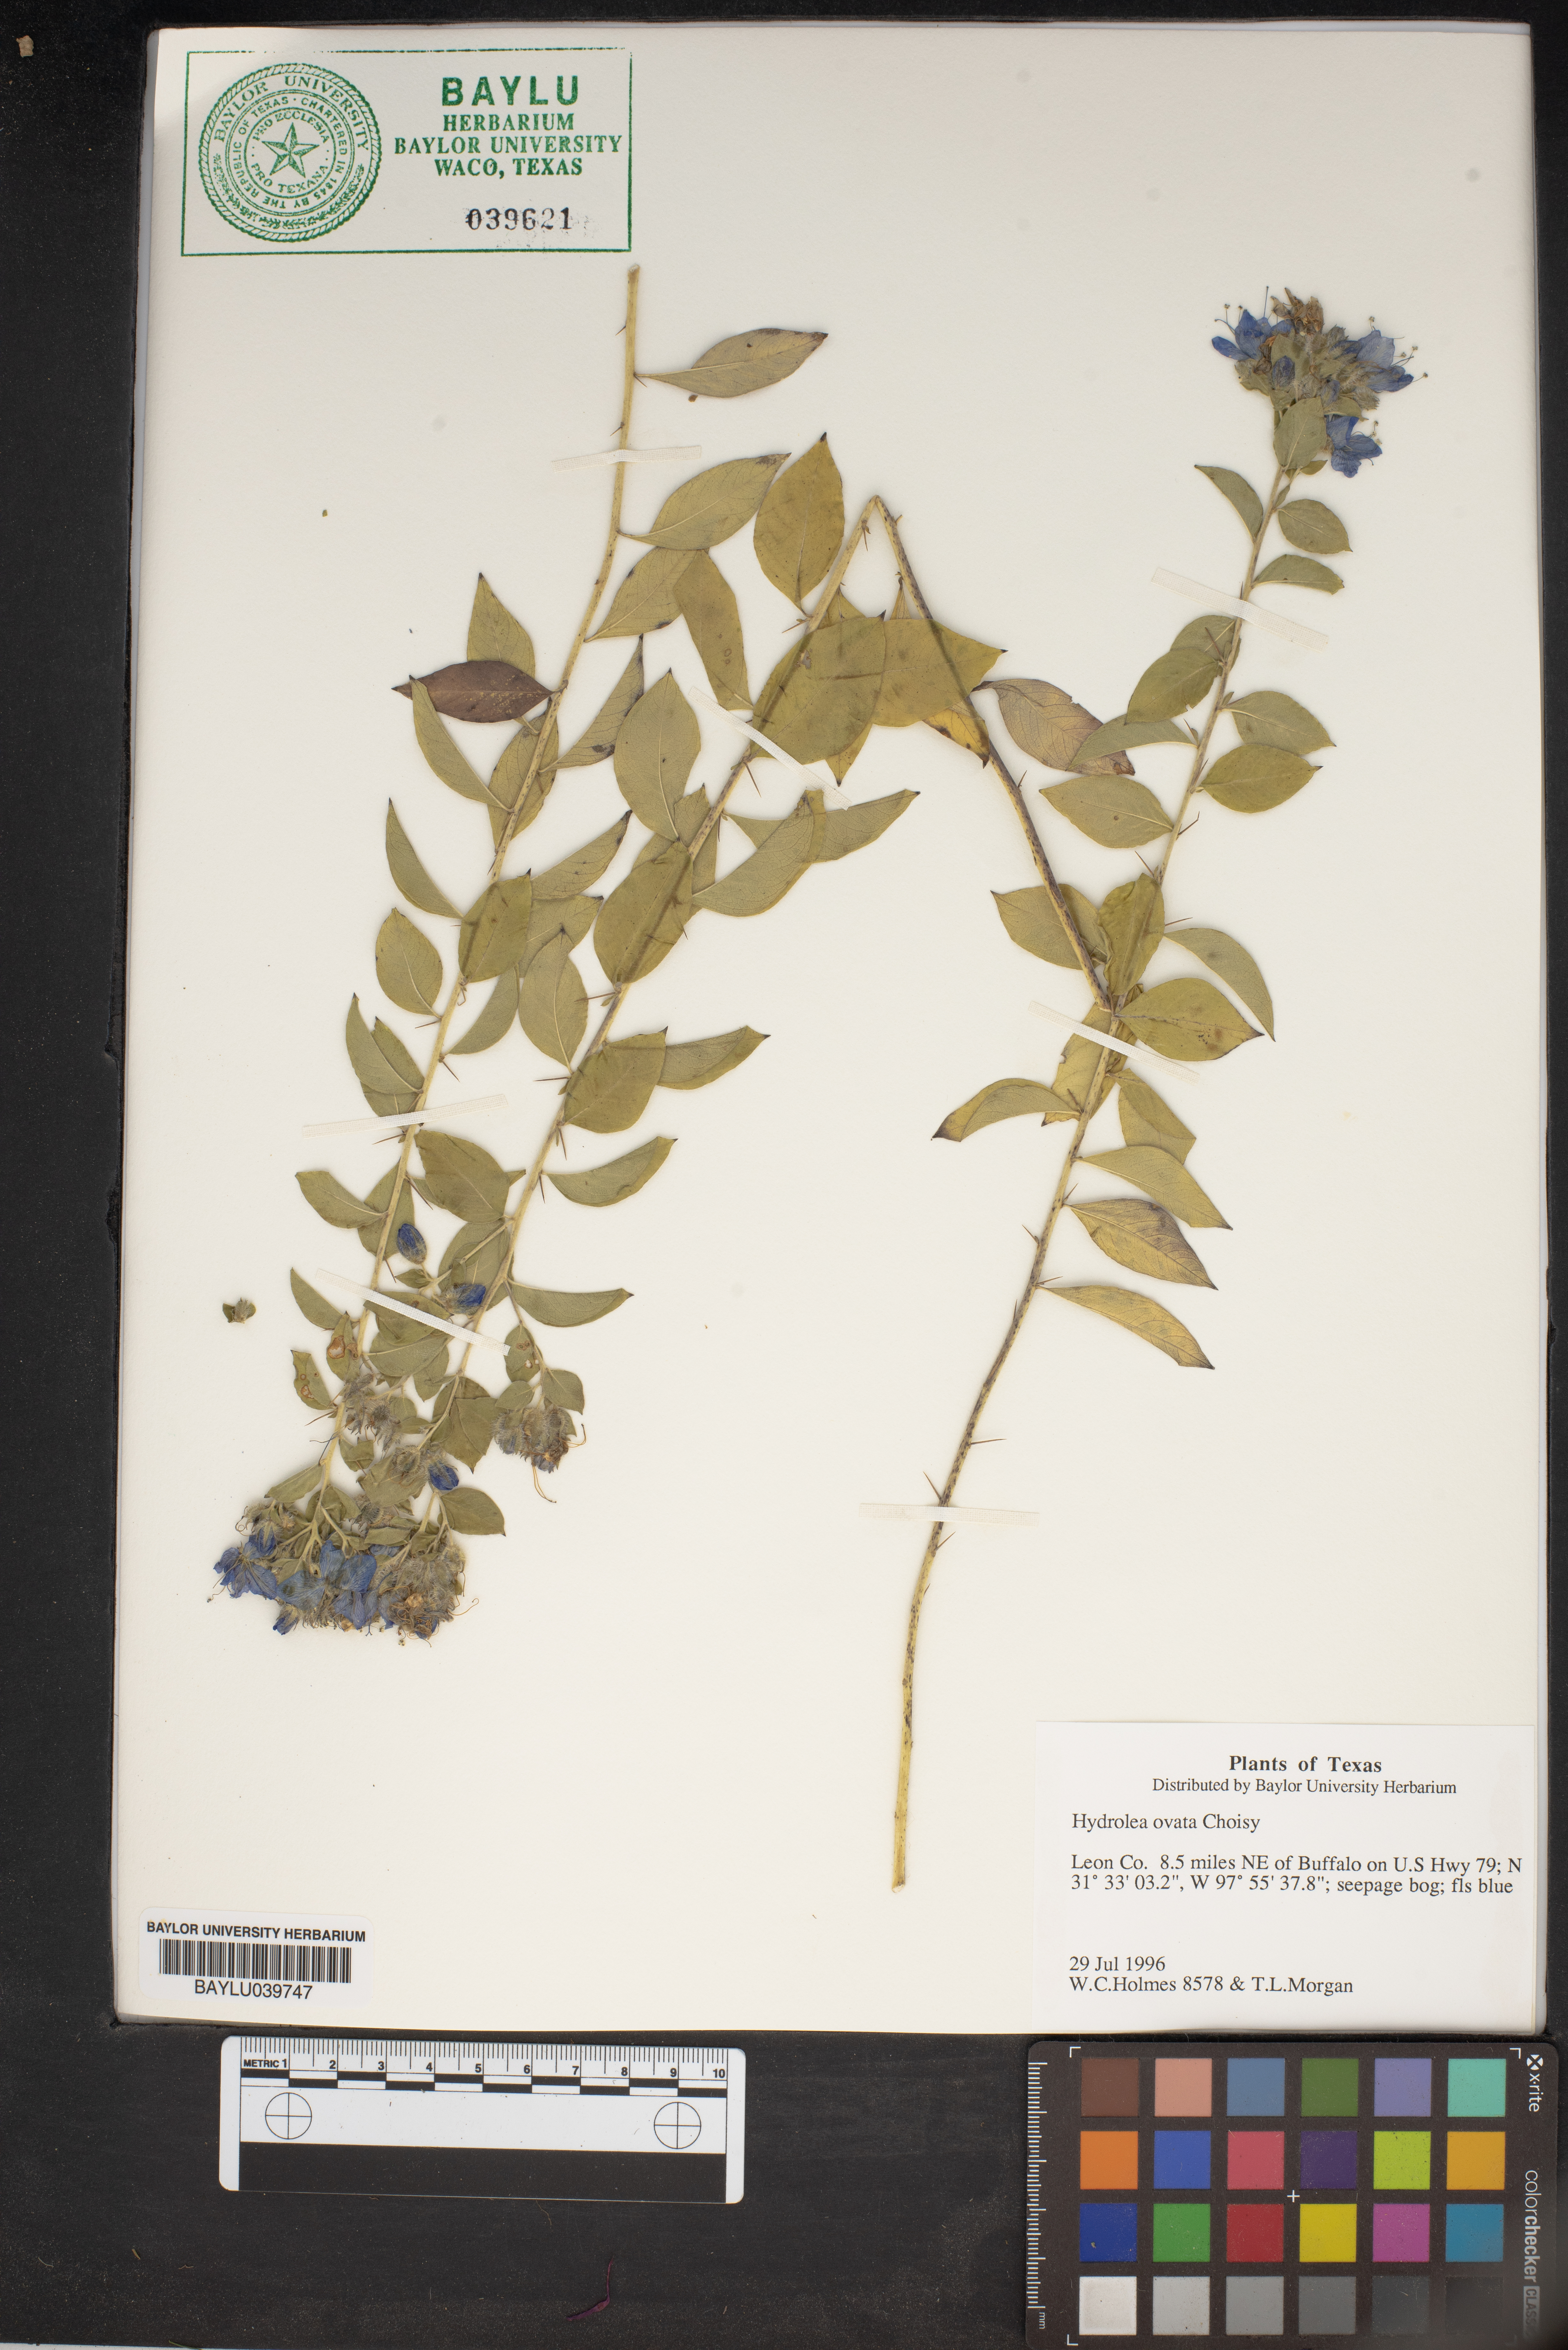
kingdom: Plantae
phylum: Tracheophyta
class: Magnoliopsida
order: Solanales
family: Hydroleaceae
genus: Hydrolea
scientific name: Hydrolea ovata
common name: Ovate false fiddleleaf
